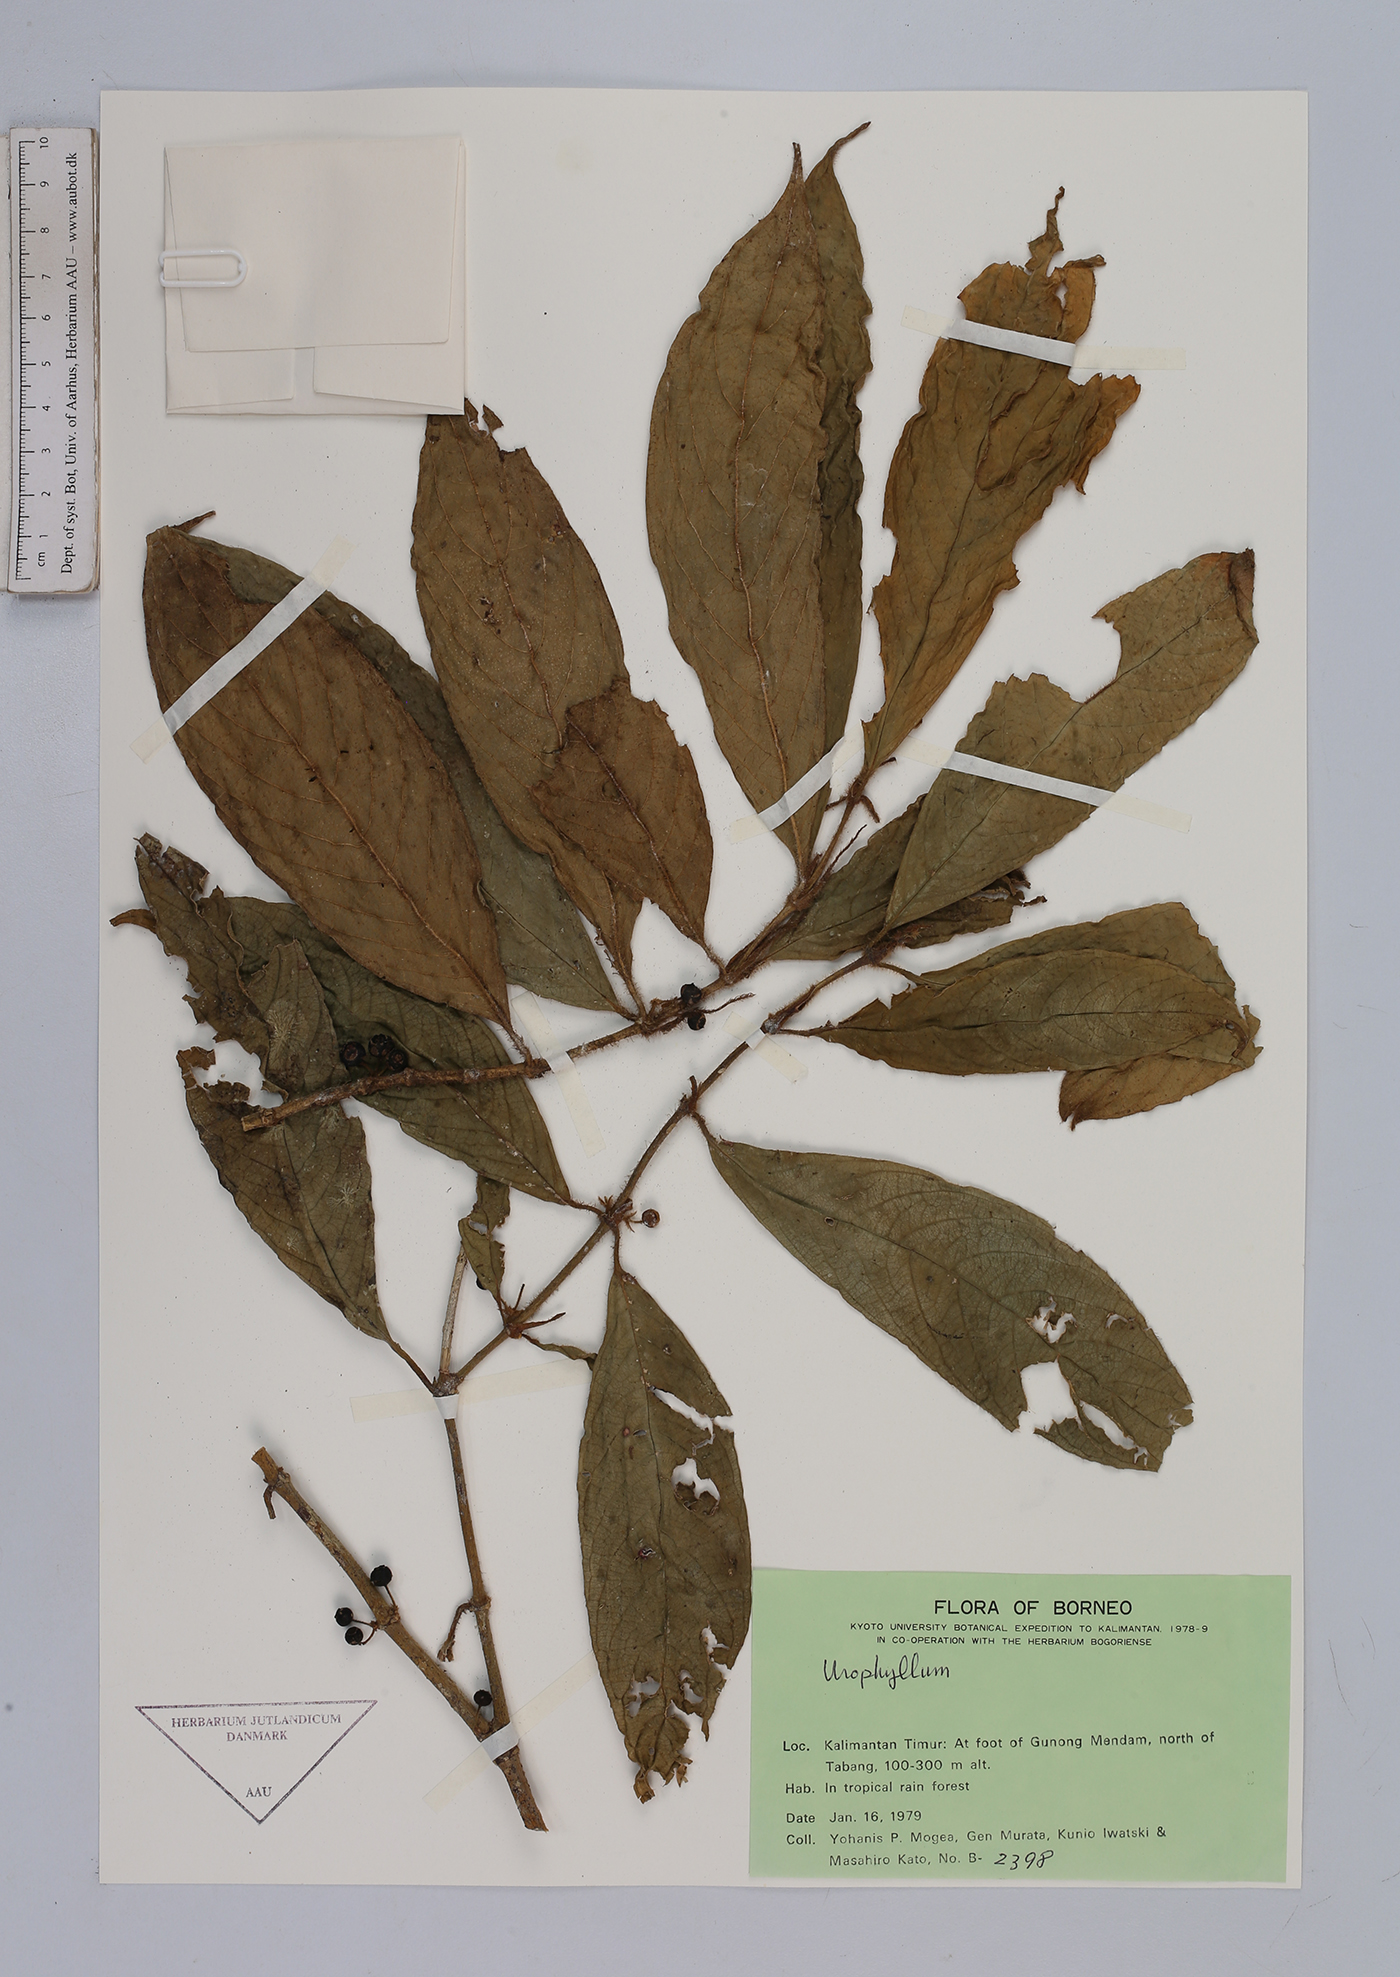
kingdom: Plantae
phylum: Tracheophyta
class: Magnoliopsida
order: Gentianales
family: Rubiaceae
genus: Urophyllum
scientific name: Urophyllum
